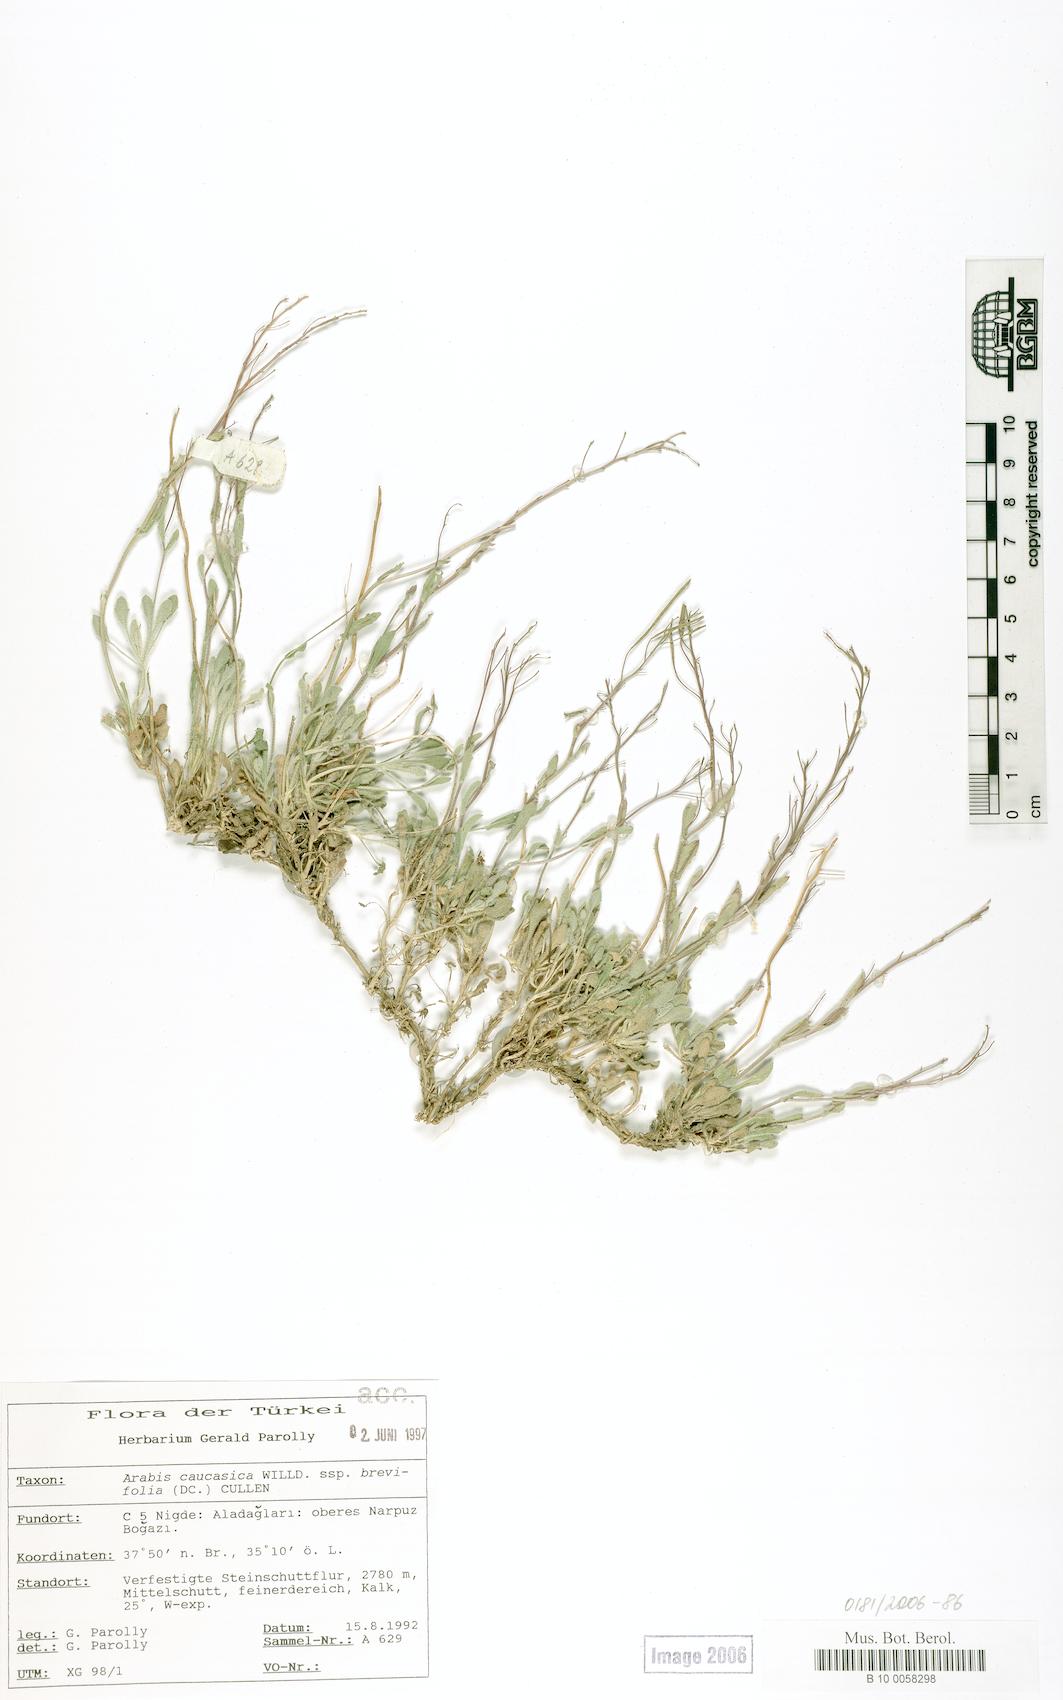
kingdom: Plantae
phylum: Tracheophyta
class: Magnoliopsida
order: Brassicales
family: Brassicaceae
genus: Arabis
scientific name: Arabis caucasica
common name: Gray rockcress
